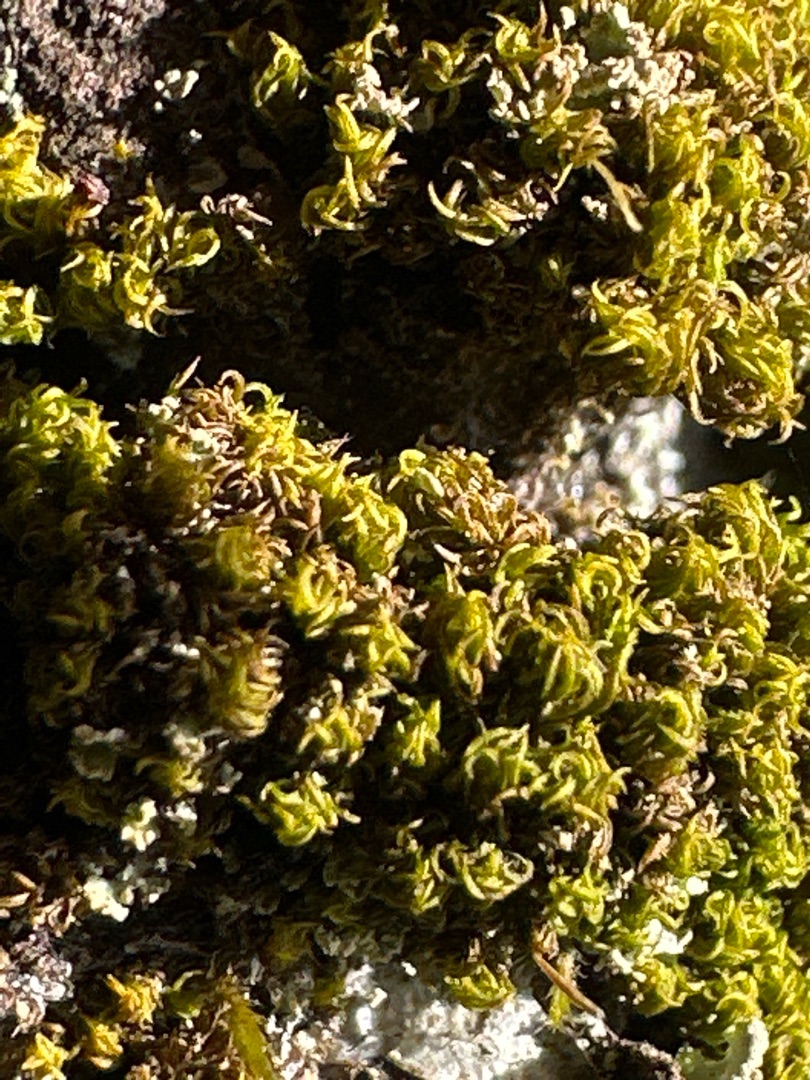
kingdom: Plantae
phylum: Bryophyta
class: Bryopsida
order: Dicranales
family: Rhabdoweisiaceae
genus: Dicranoweisia
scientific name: Dicranoweisia cirrata
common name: Almindelig krøltuemos
